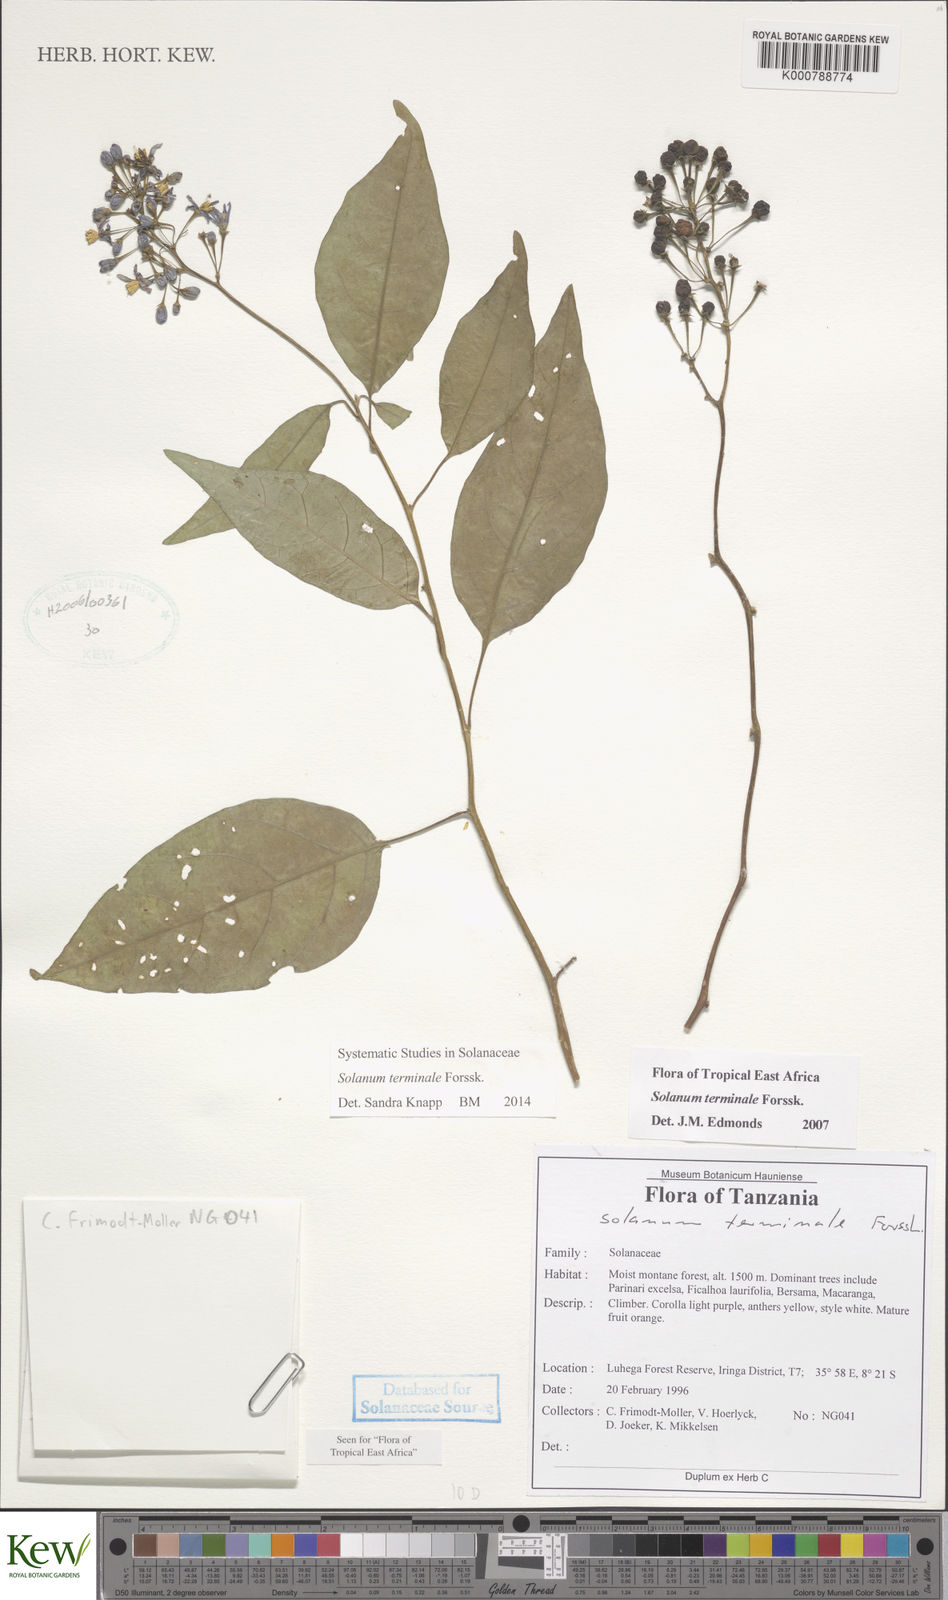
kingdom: Plantae
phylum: Tracheophyta
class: Magnoliopsida
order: Solanales
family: Solanaceae
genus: Solanum
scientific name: Solanum terminale
